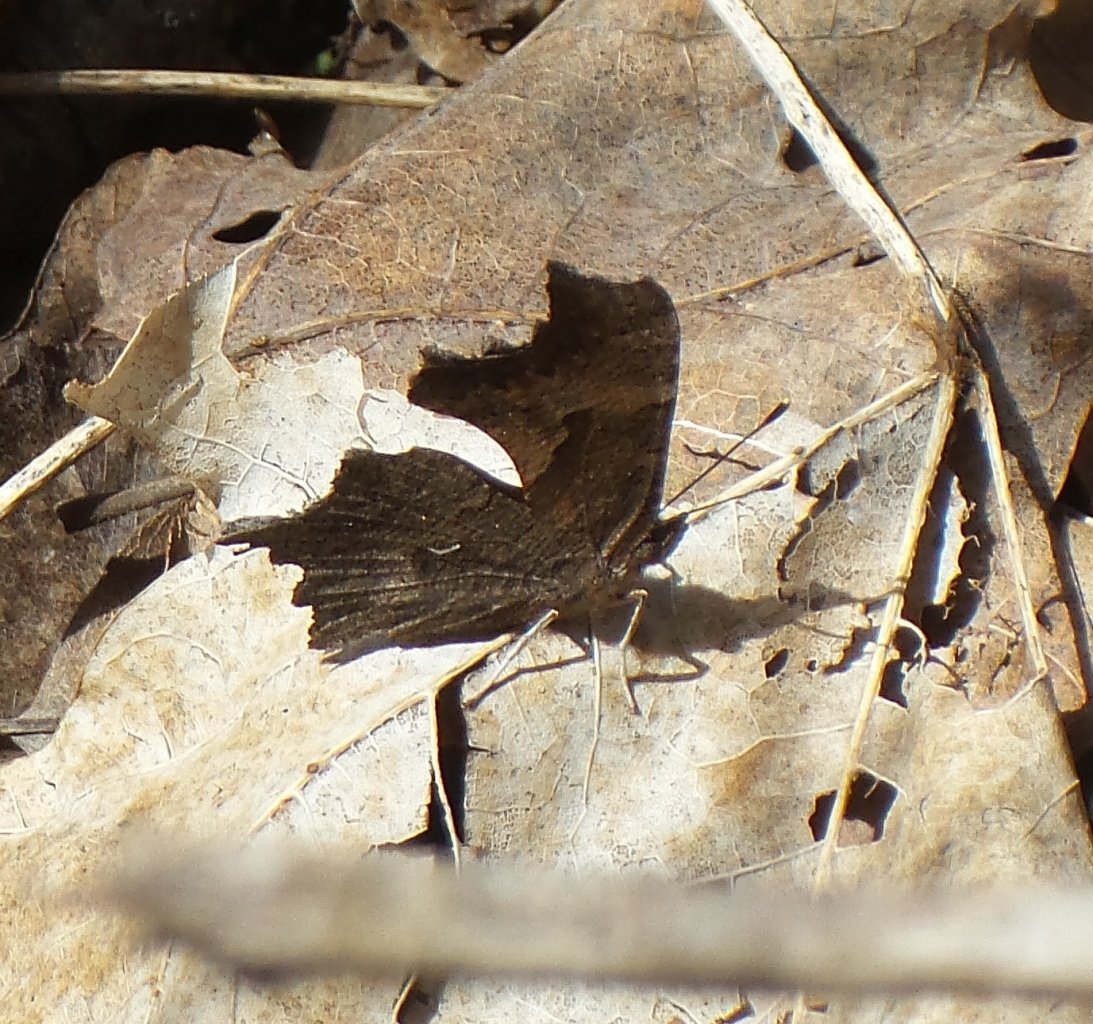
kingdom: Animalia
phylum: Arthropoda
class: Insecta
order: Lepidoptera
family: Nymphalidae
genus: Polygonia
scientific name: Polygonia progne
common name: Gray Comma
